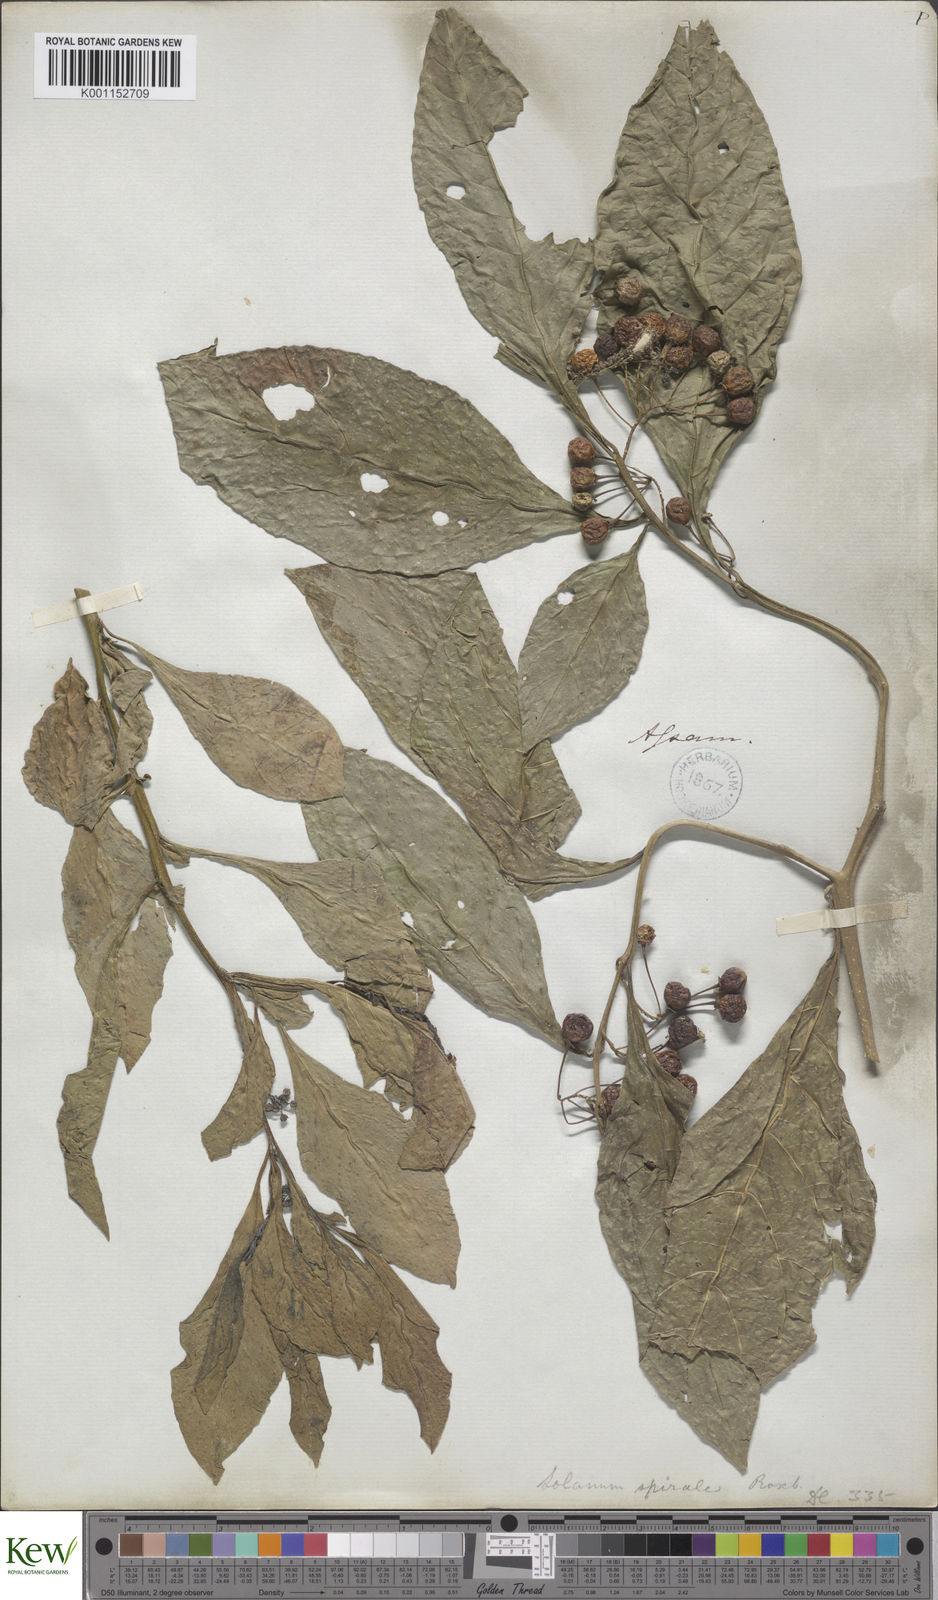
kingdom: Plantae
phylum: Tracheophyta
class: Magnoliopsida
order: Solanales
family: Solanaceae
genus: Solanum
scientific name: Solanum spirale
